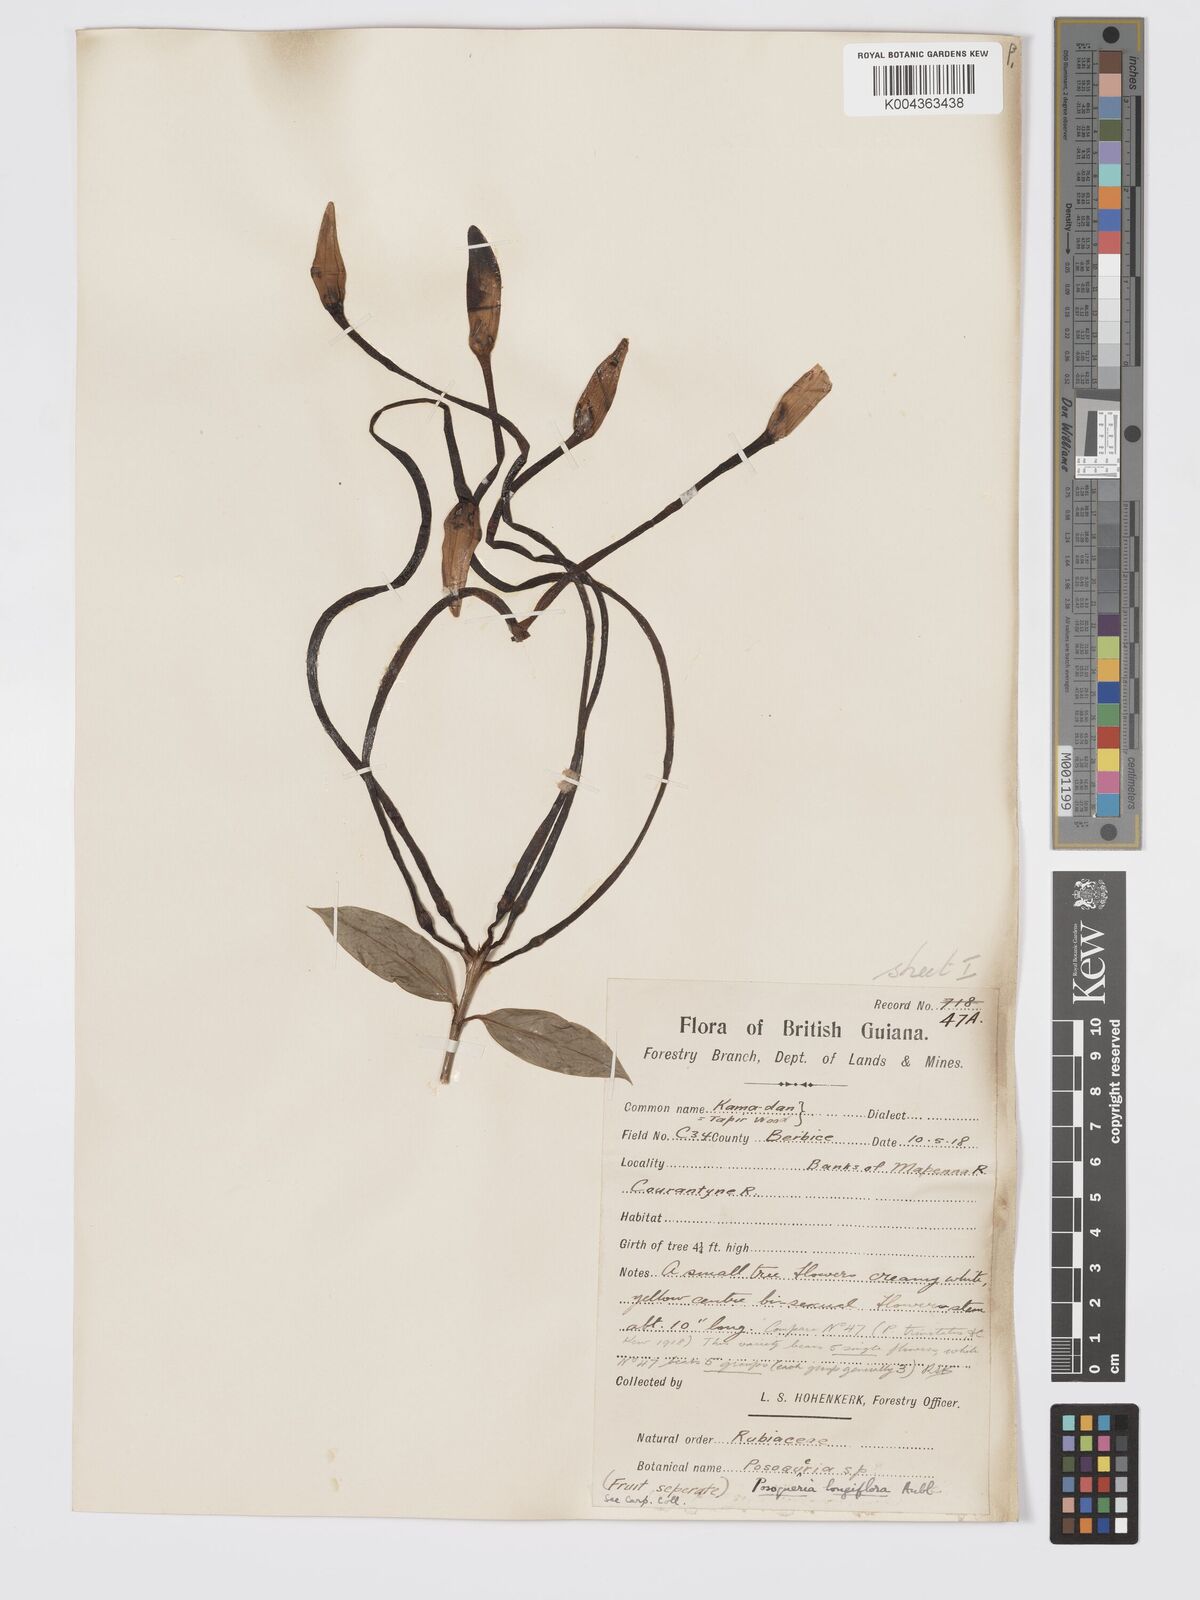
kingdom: Plantae
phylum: Tracheophyta
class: Magnoliopsida
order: Gentianales
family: Rubiaceae
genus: Posoqueria
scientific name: Posoqueria
